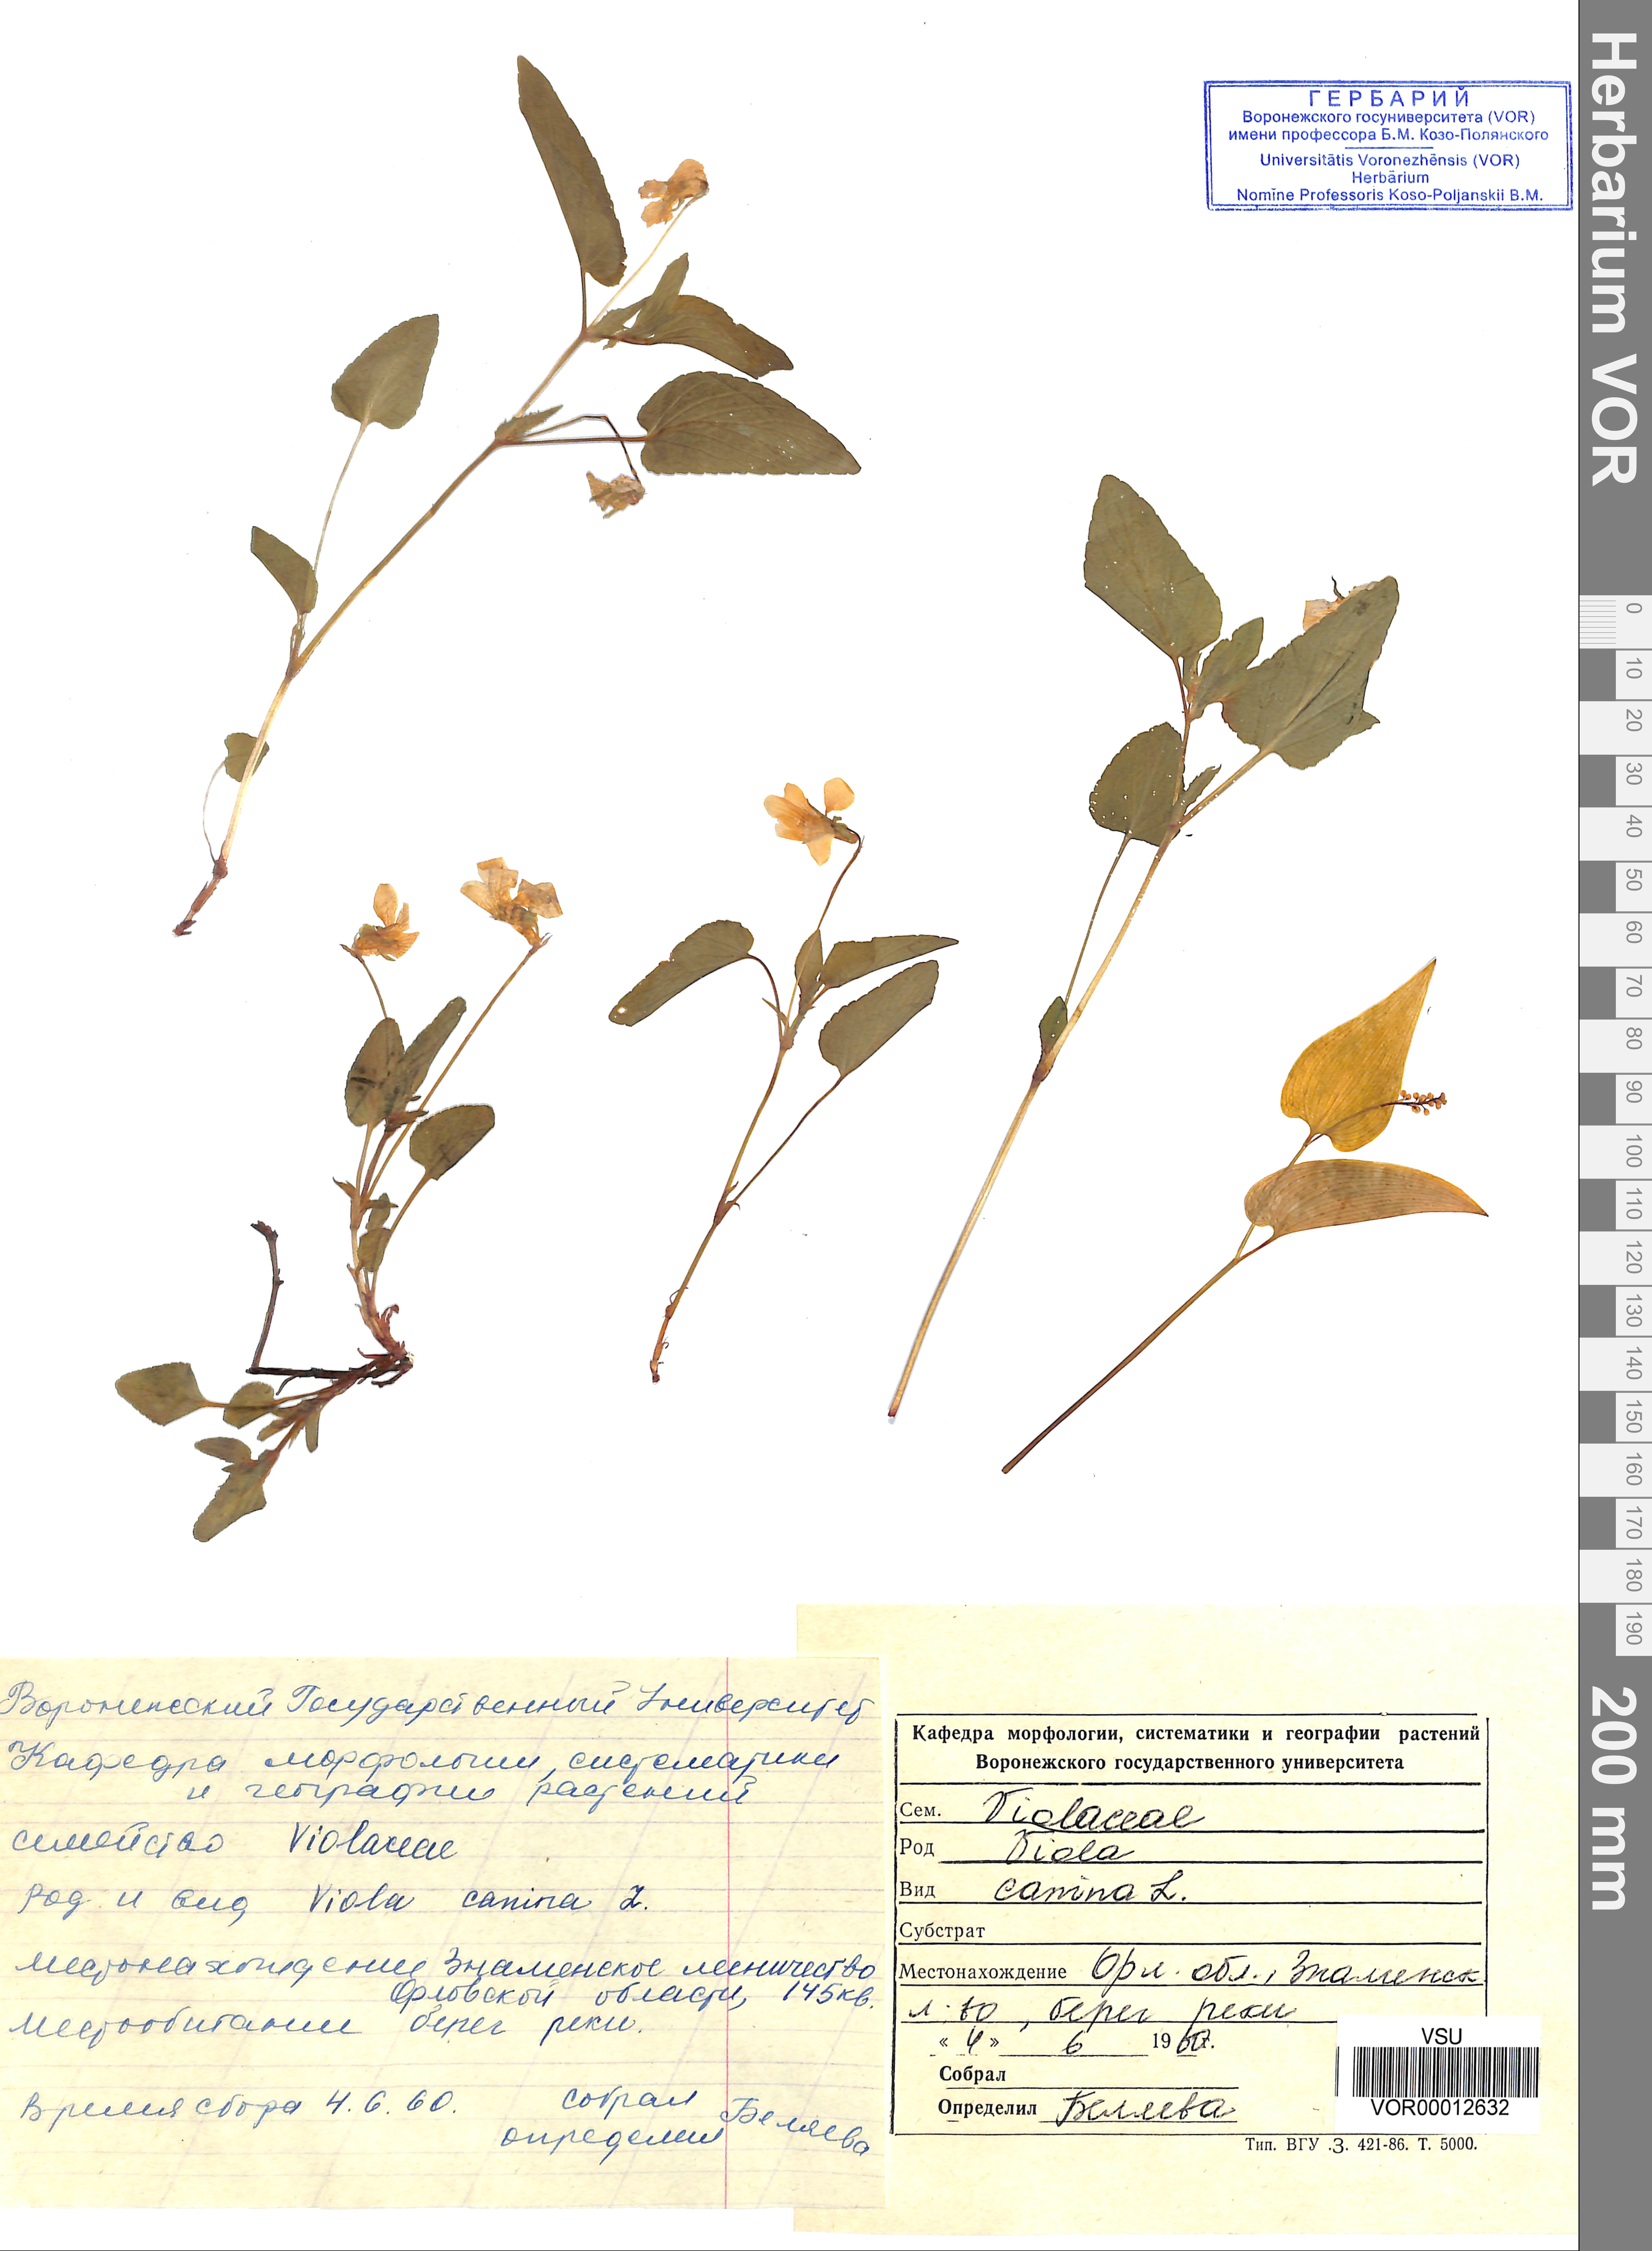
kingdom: Plantae
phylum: Tracheophyta
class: Magnoliopsida
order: Malpighiales
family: Violaceae
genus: Viola
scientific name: Viola canina
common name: Heath dog-violet
